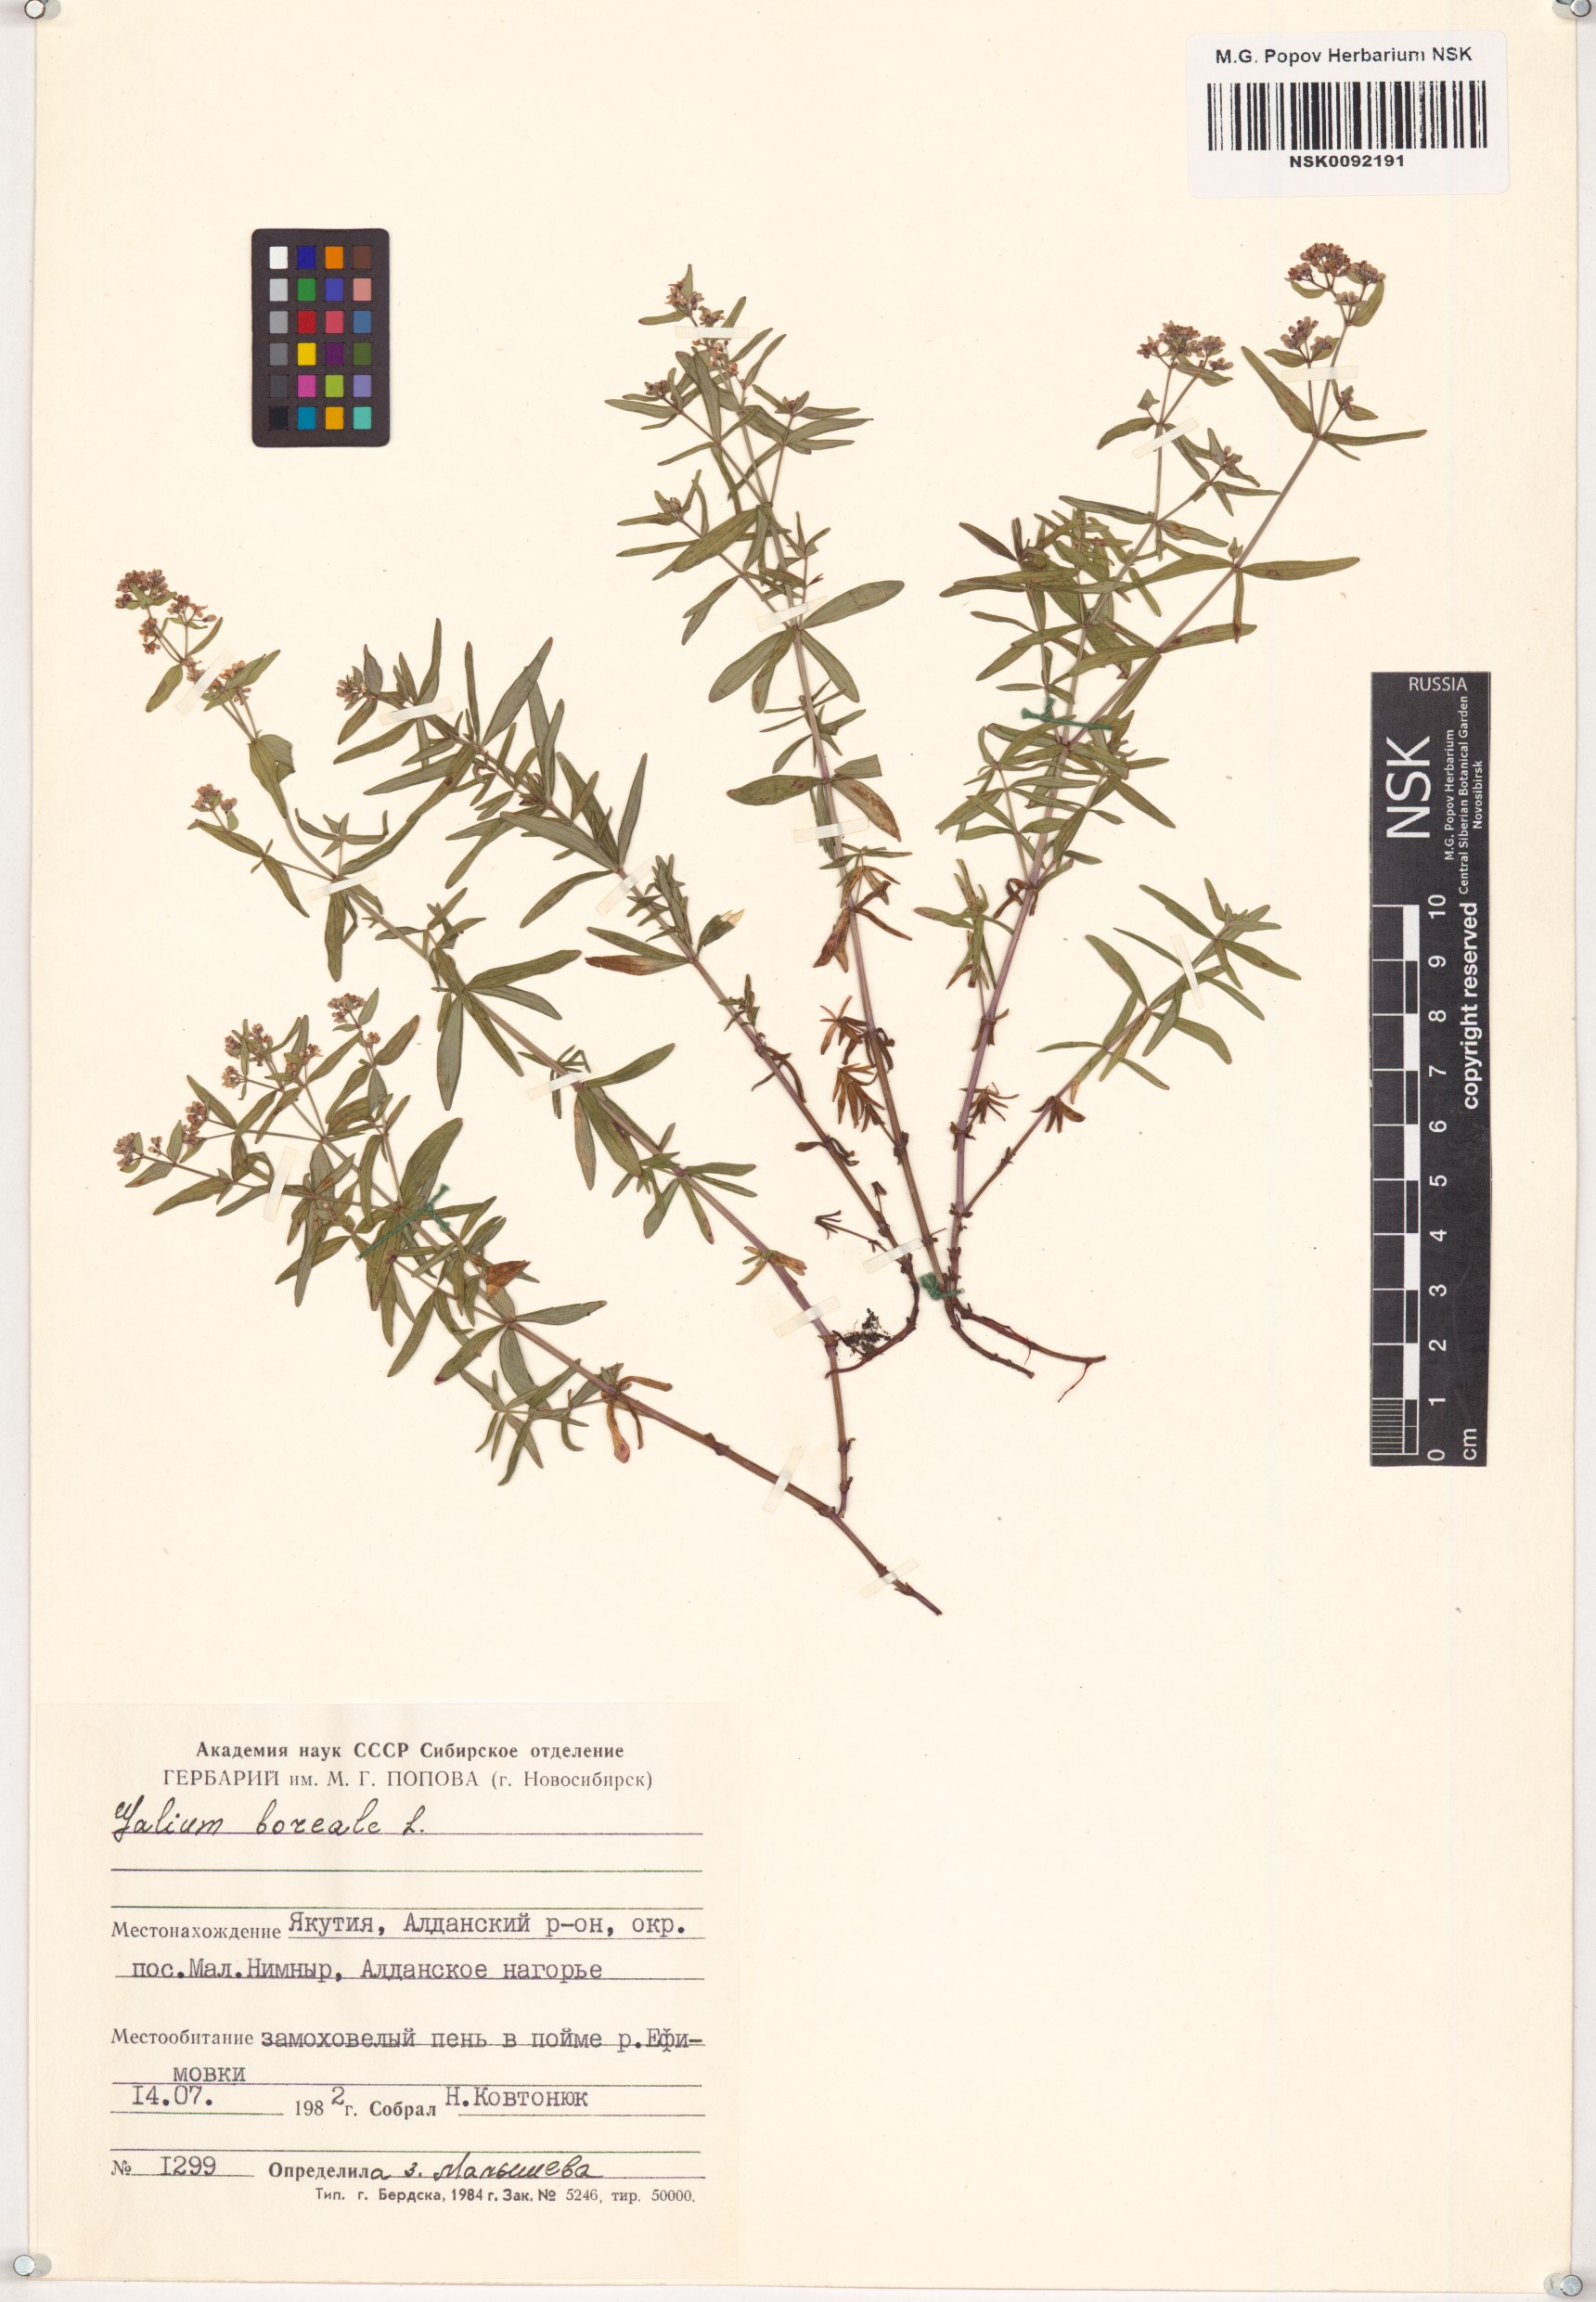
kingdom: Plantae
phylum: Tracheophyta
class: Magnoliopsida
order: Gentianales
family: Rubiaceae
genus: Galium
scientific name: Galium boreale
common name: Northern bedstraw
